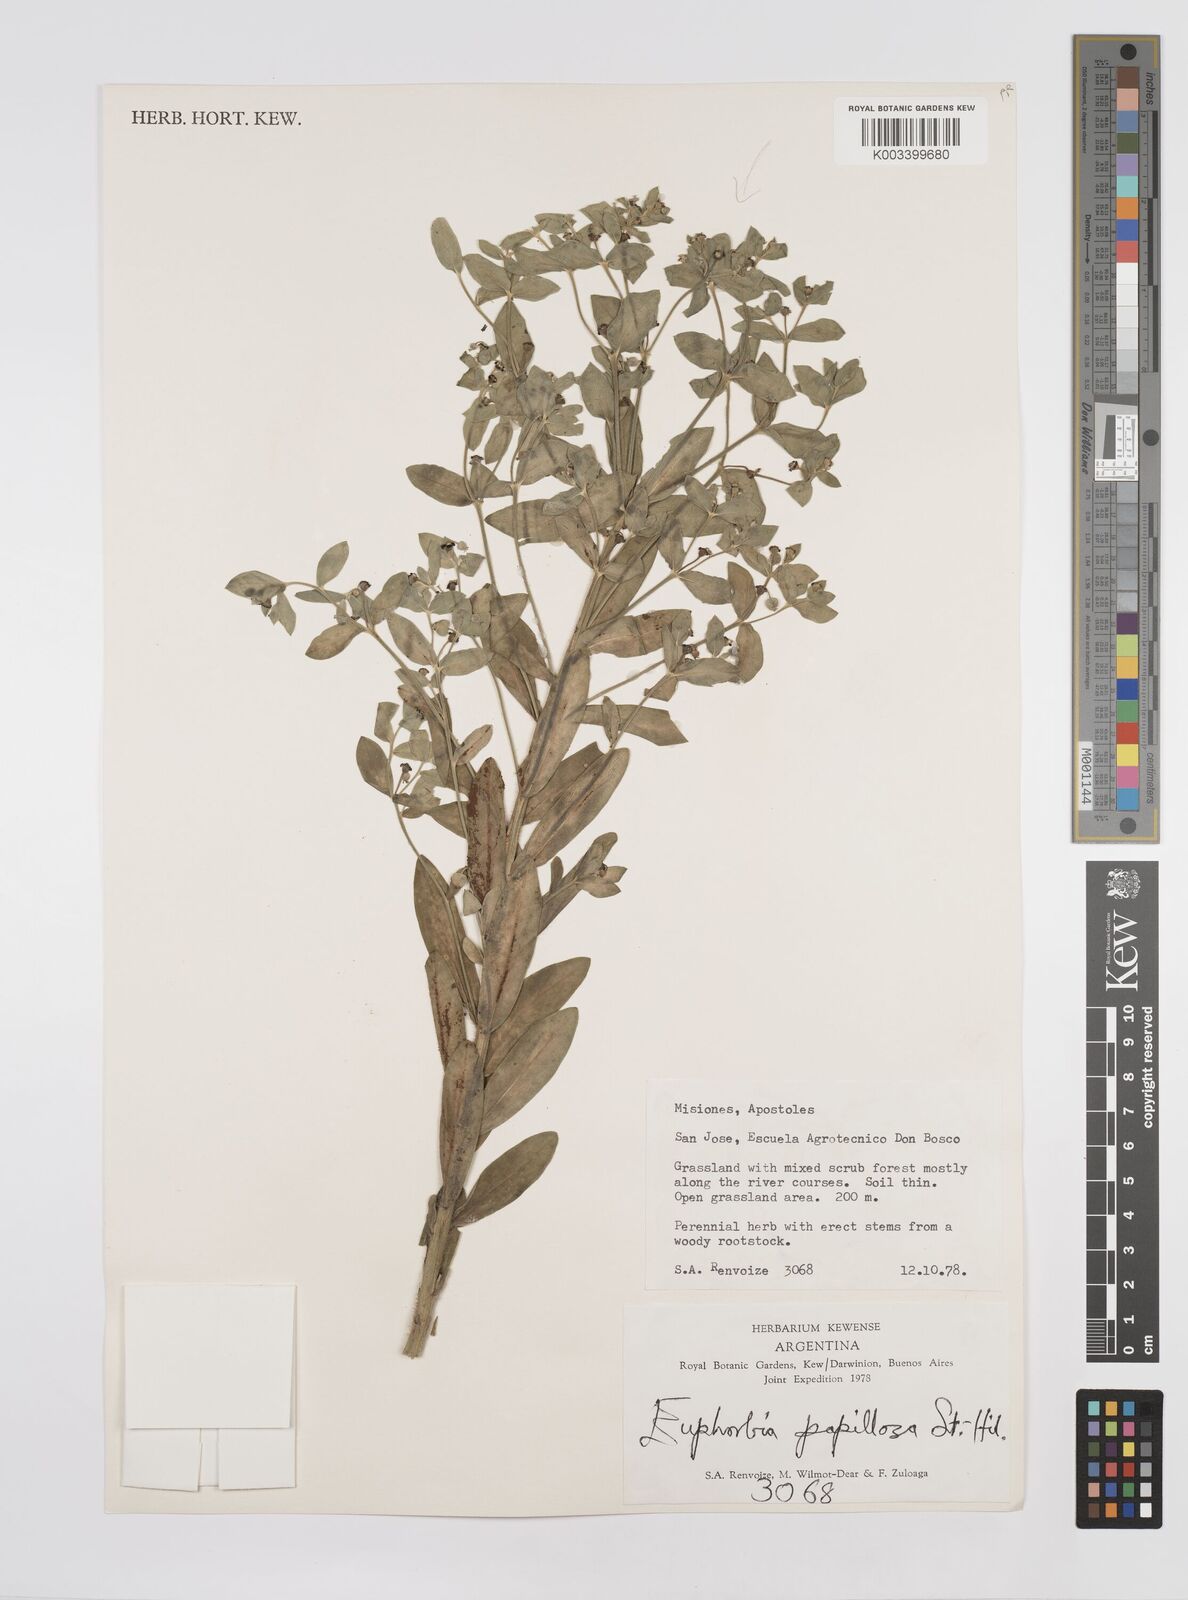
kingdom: Plantae
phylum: Tracheophyta
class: Magnoliopsida
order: Malpighiales
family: Euphorbiaceae
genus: Euphorbia
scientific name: Euphorbia
